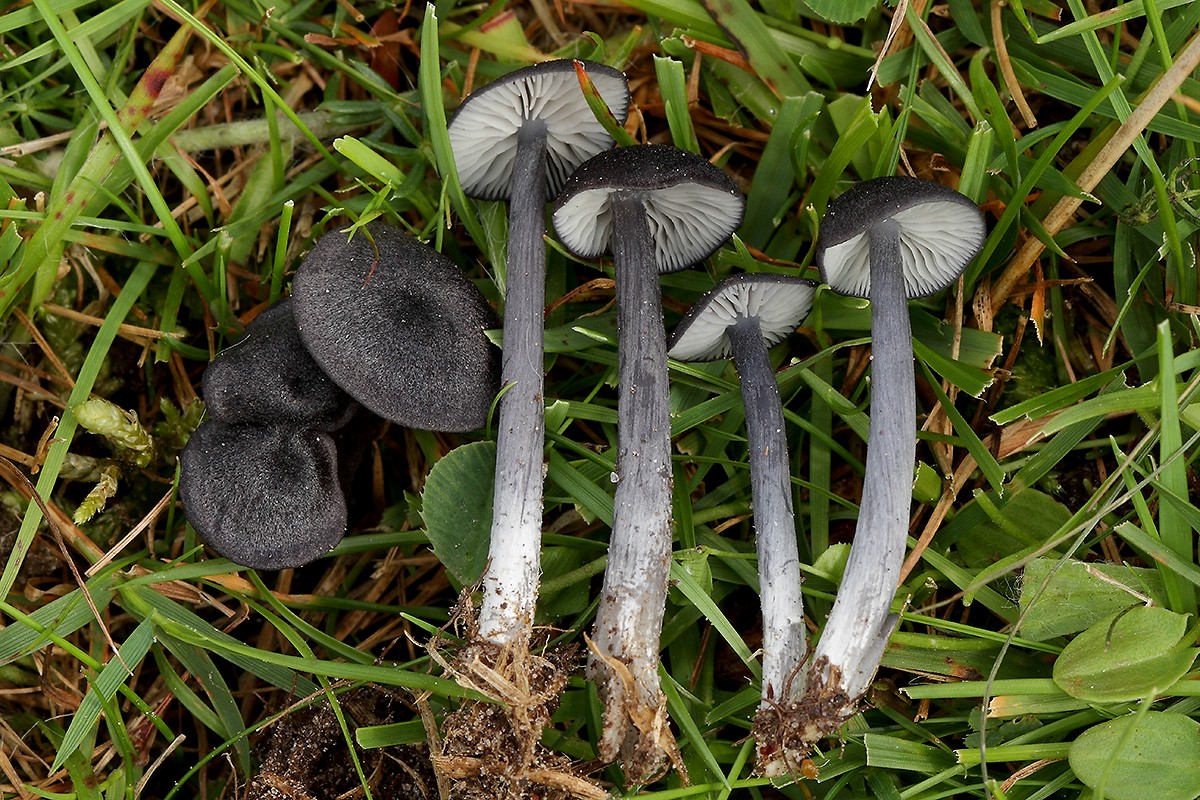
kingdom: Fungi
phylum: Basidiomycota
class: Agaricomycetes
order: Agaricales
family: Entolomataceae
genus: Entoloma
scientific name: Entoloma porphyrogriseum
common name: porfyrgrå rødblad
